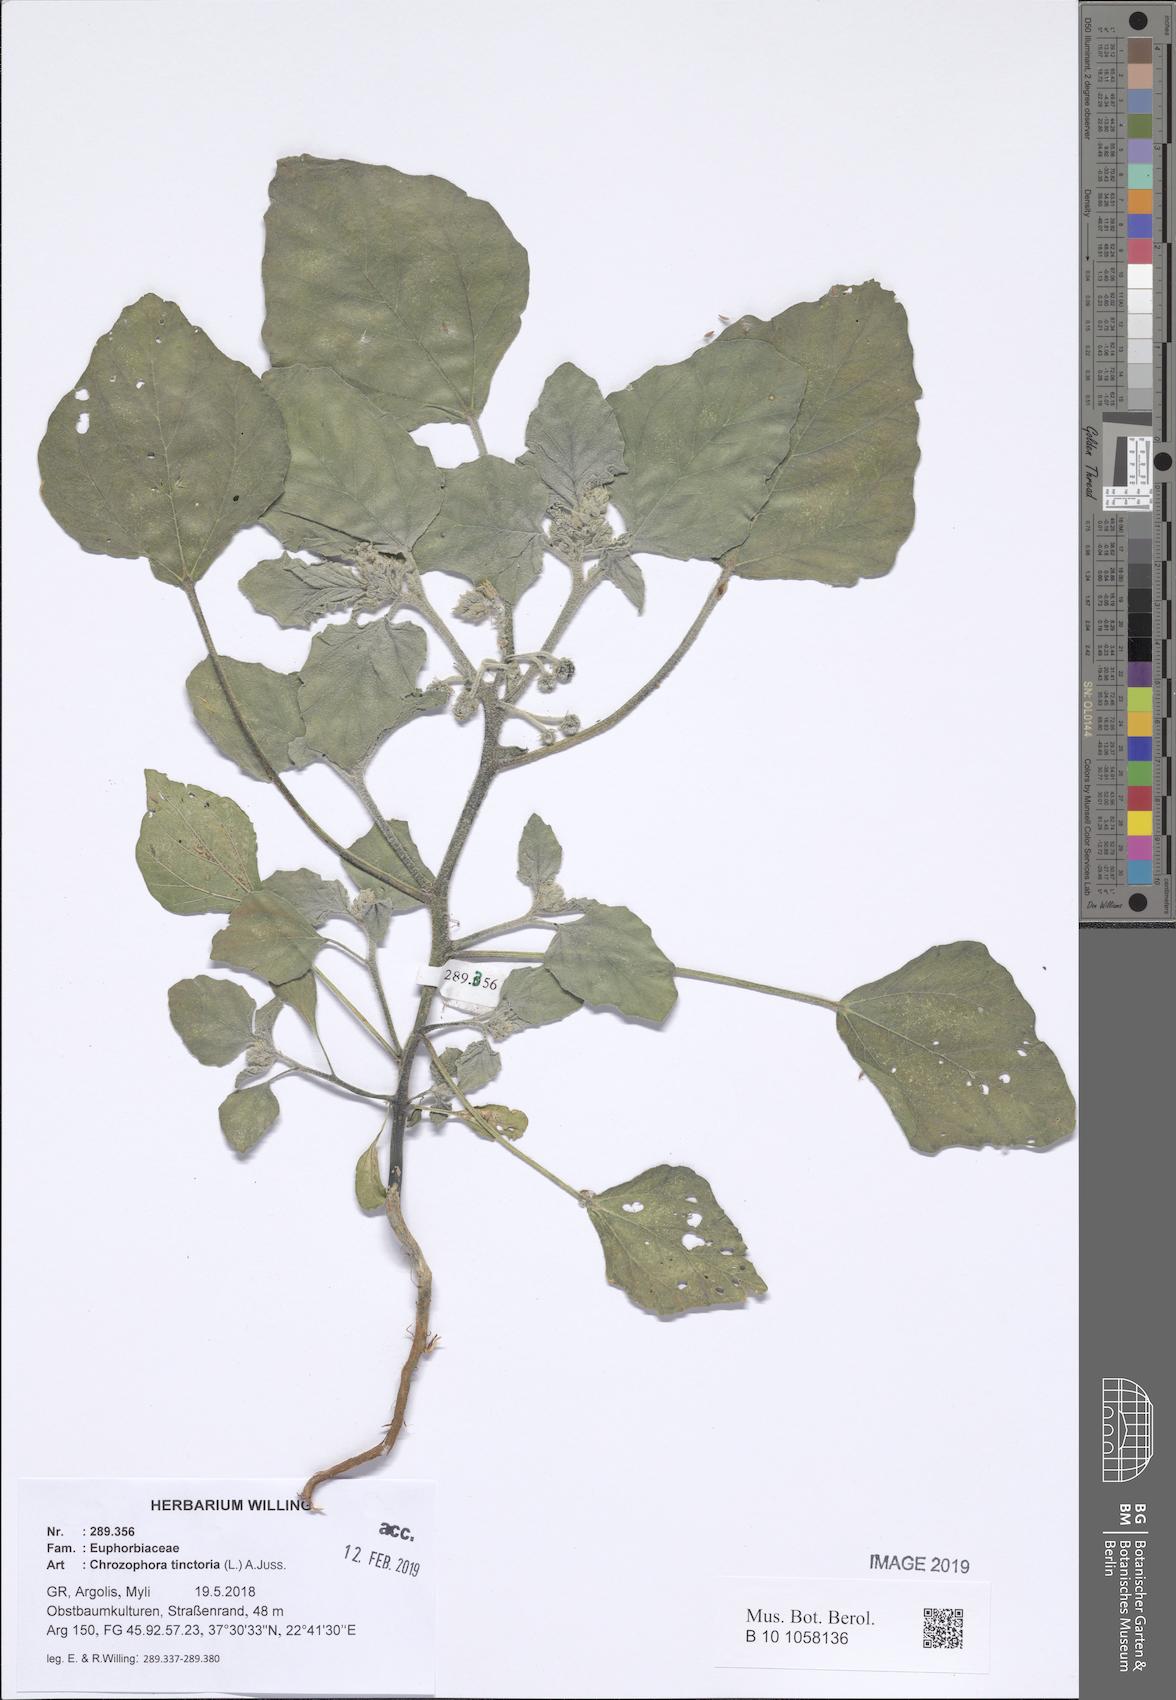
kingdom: Plantae
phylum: Tracheophyta
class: Magnoliopsida
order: Malpighiales
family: Euphorbiaceae
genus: Chrozophora
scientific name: Chrozophora tinctoria
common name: Dyer's litmus
